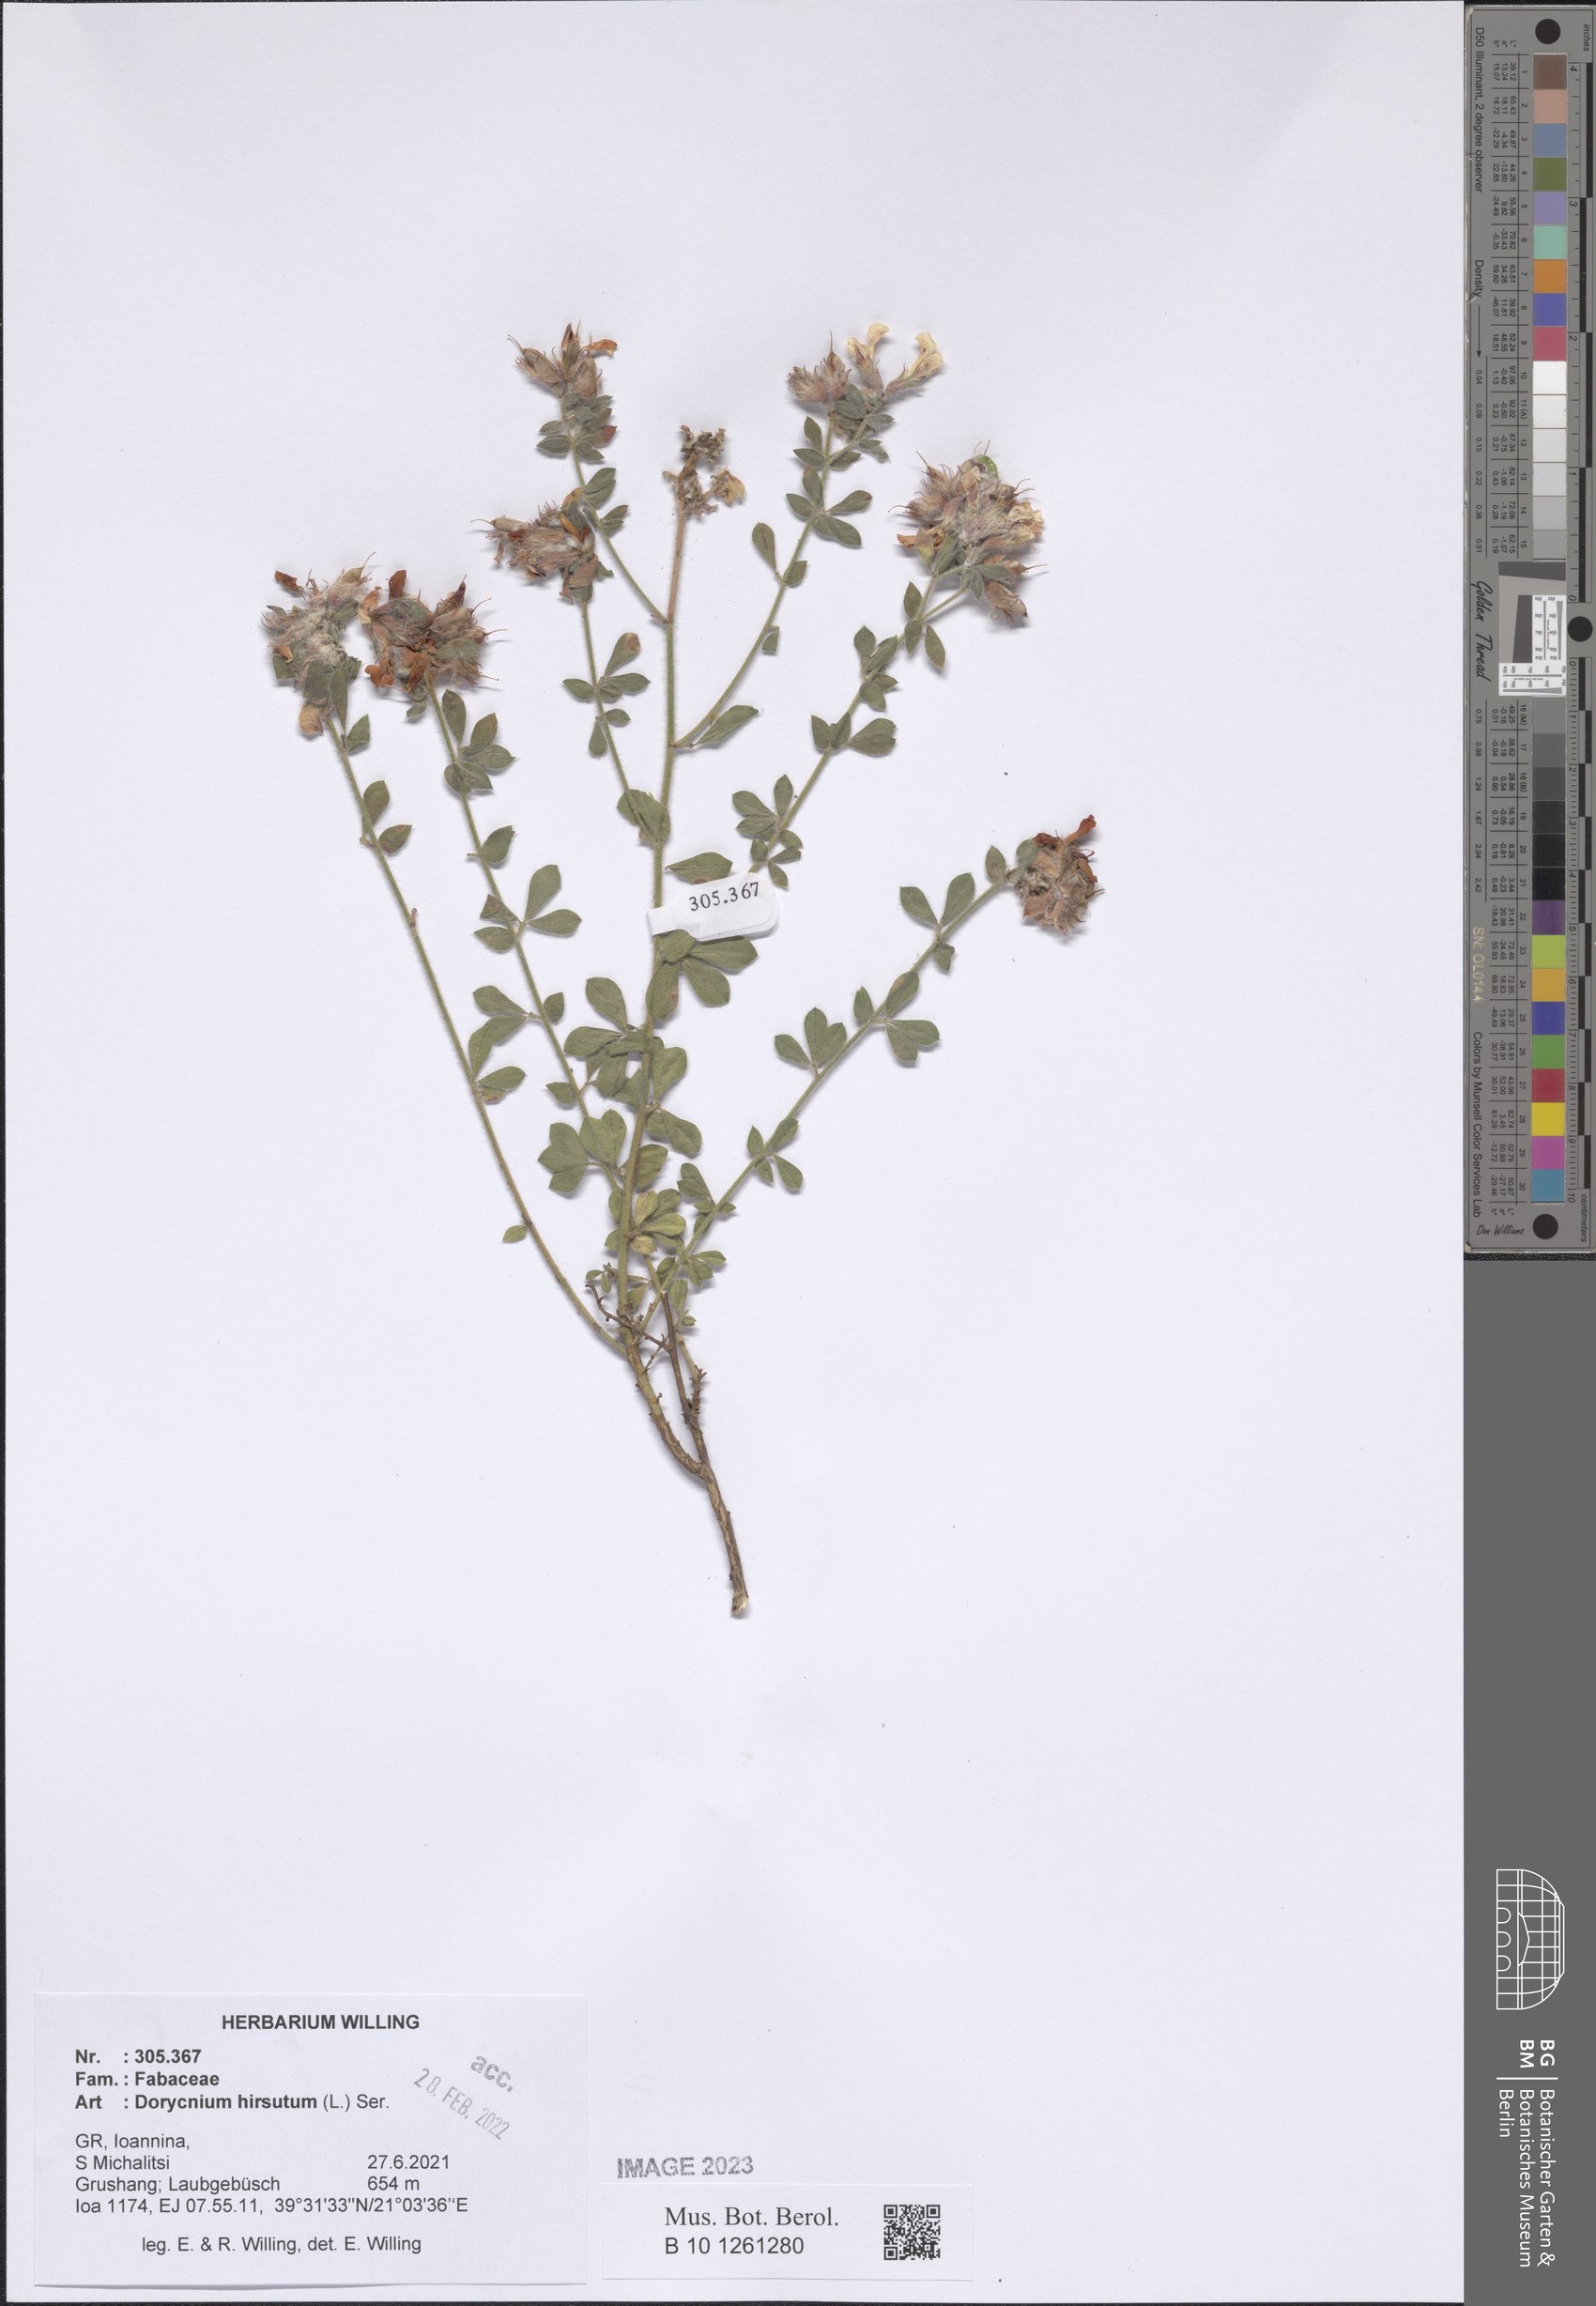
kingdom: Plantae
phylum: Tracheophyta
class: Magnoliopsida
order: Fabales
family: Fabaceae
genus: Lotus
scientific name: Lotus hirsutus
